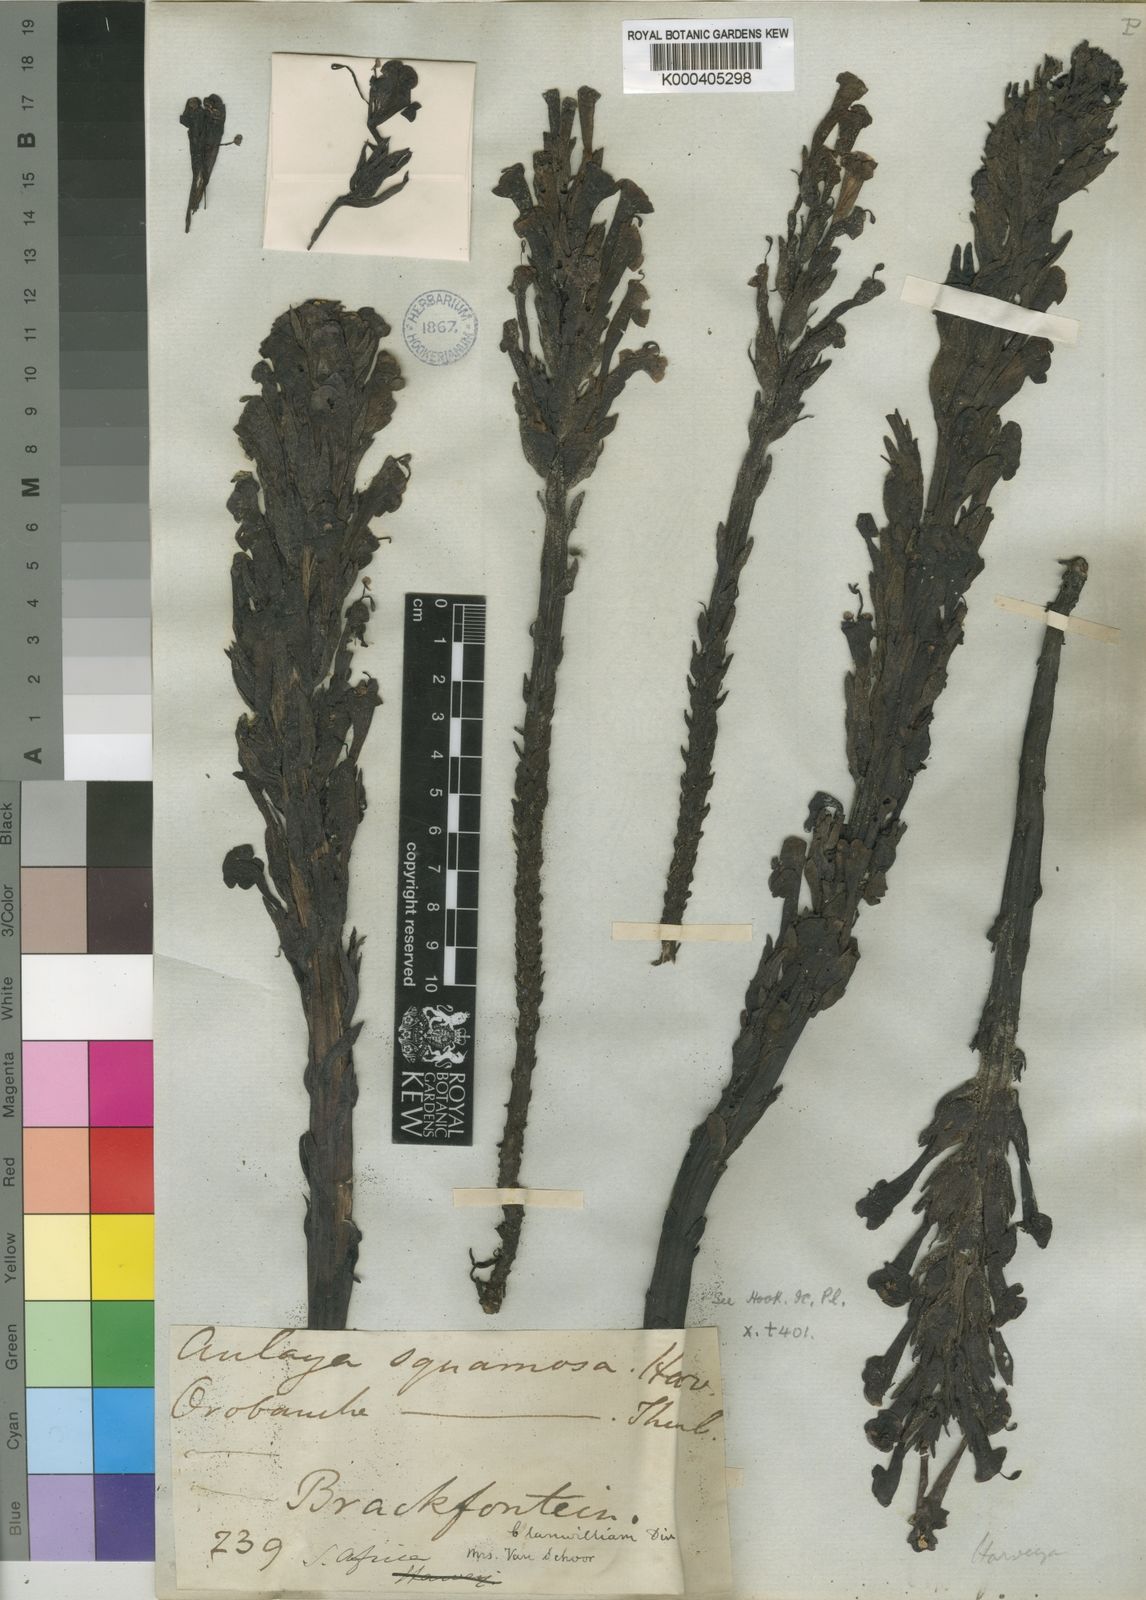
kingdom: Plantae
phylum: Tracheophyta
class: Magnoliopsida
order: Lamiales
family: Orobanchaceae
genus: Harveya
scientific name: Harveya squamosa
